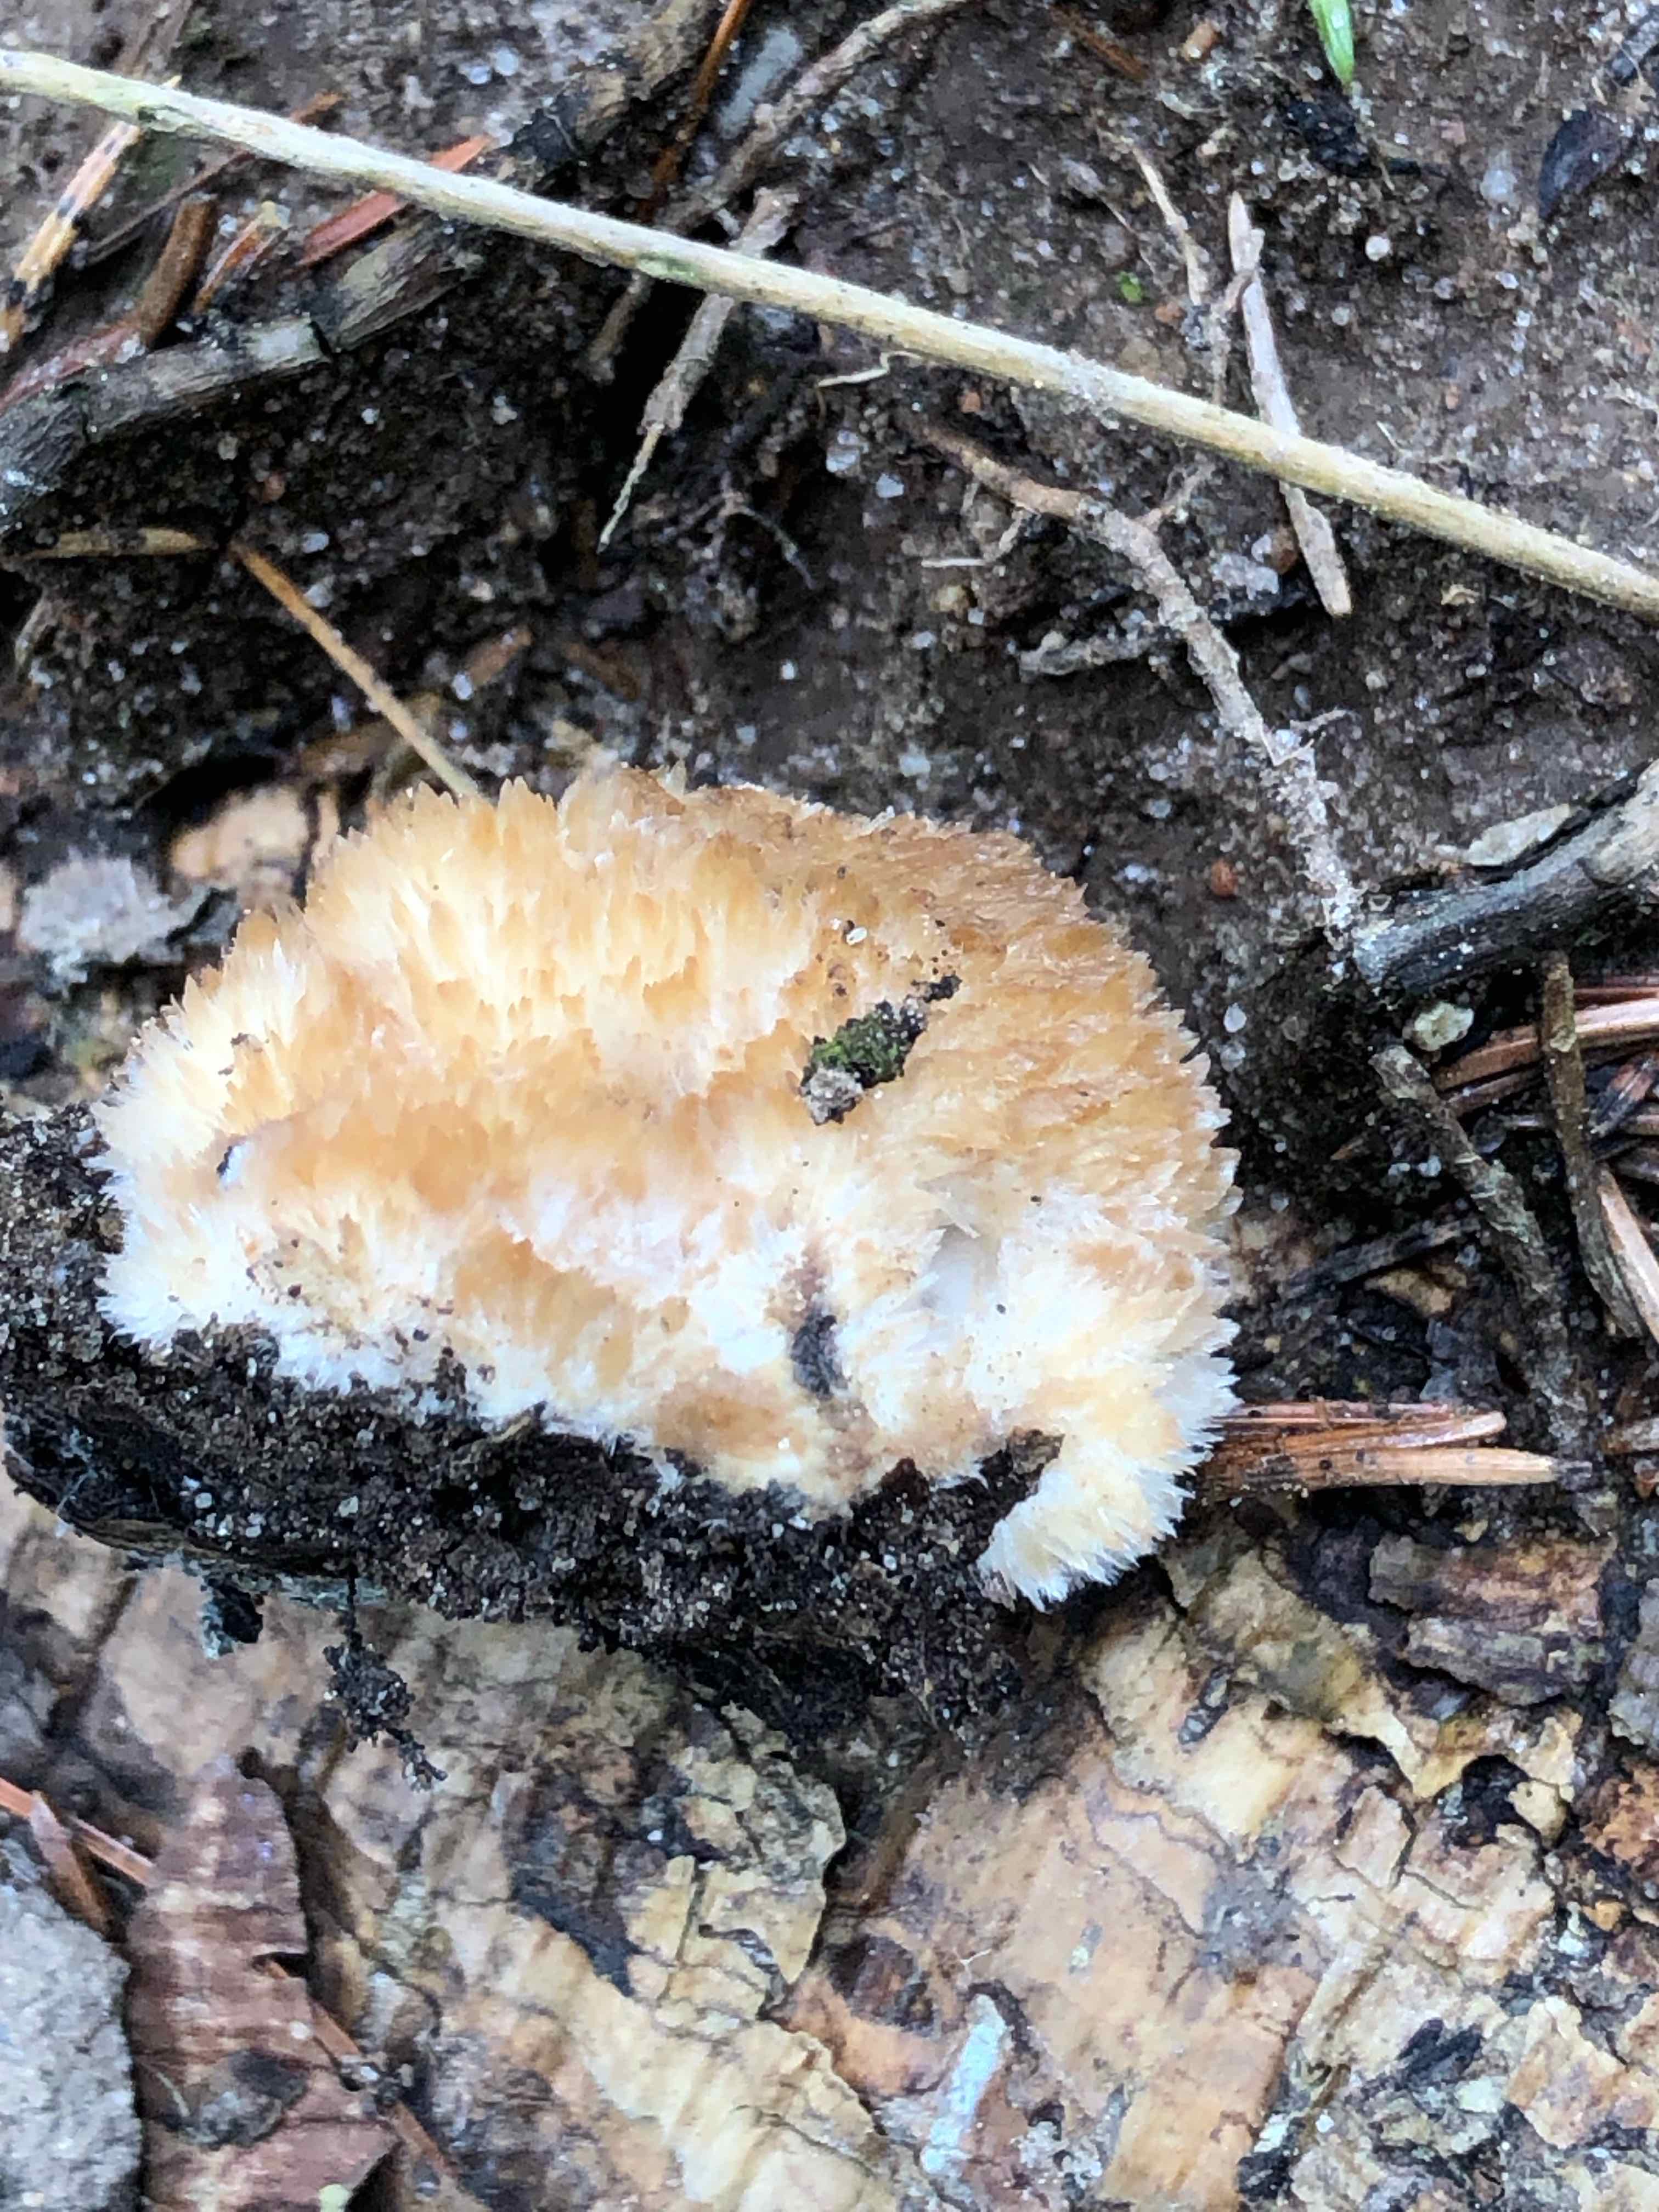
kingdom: Fungi
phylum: Basidiomycota
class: Agaricomycetes
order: Polyporales
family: Dacryobolaceae
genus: Postia
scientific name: Postia ptychogaster
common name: støvende kødporesvamp
